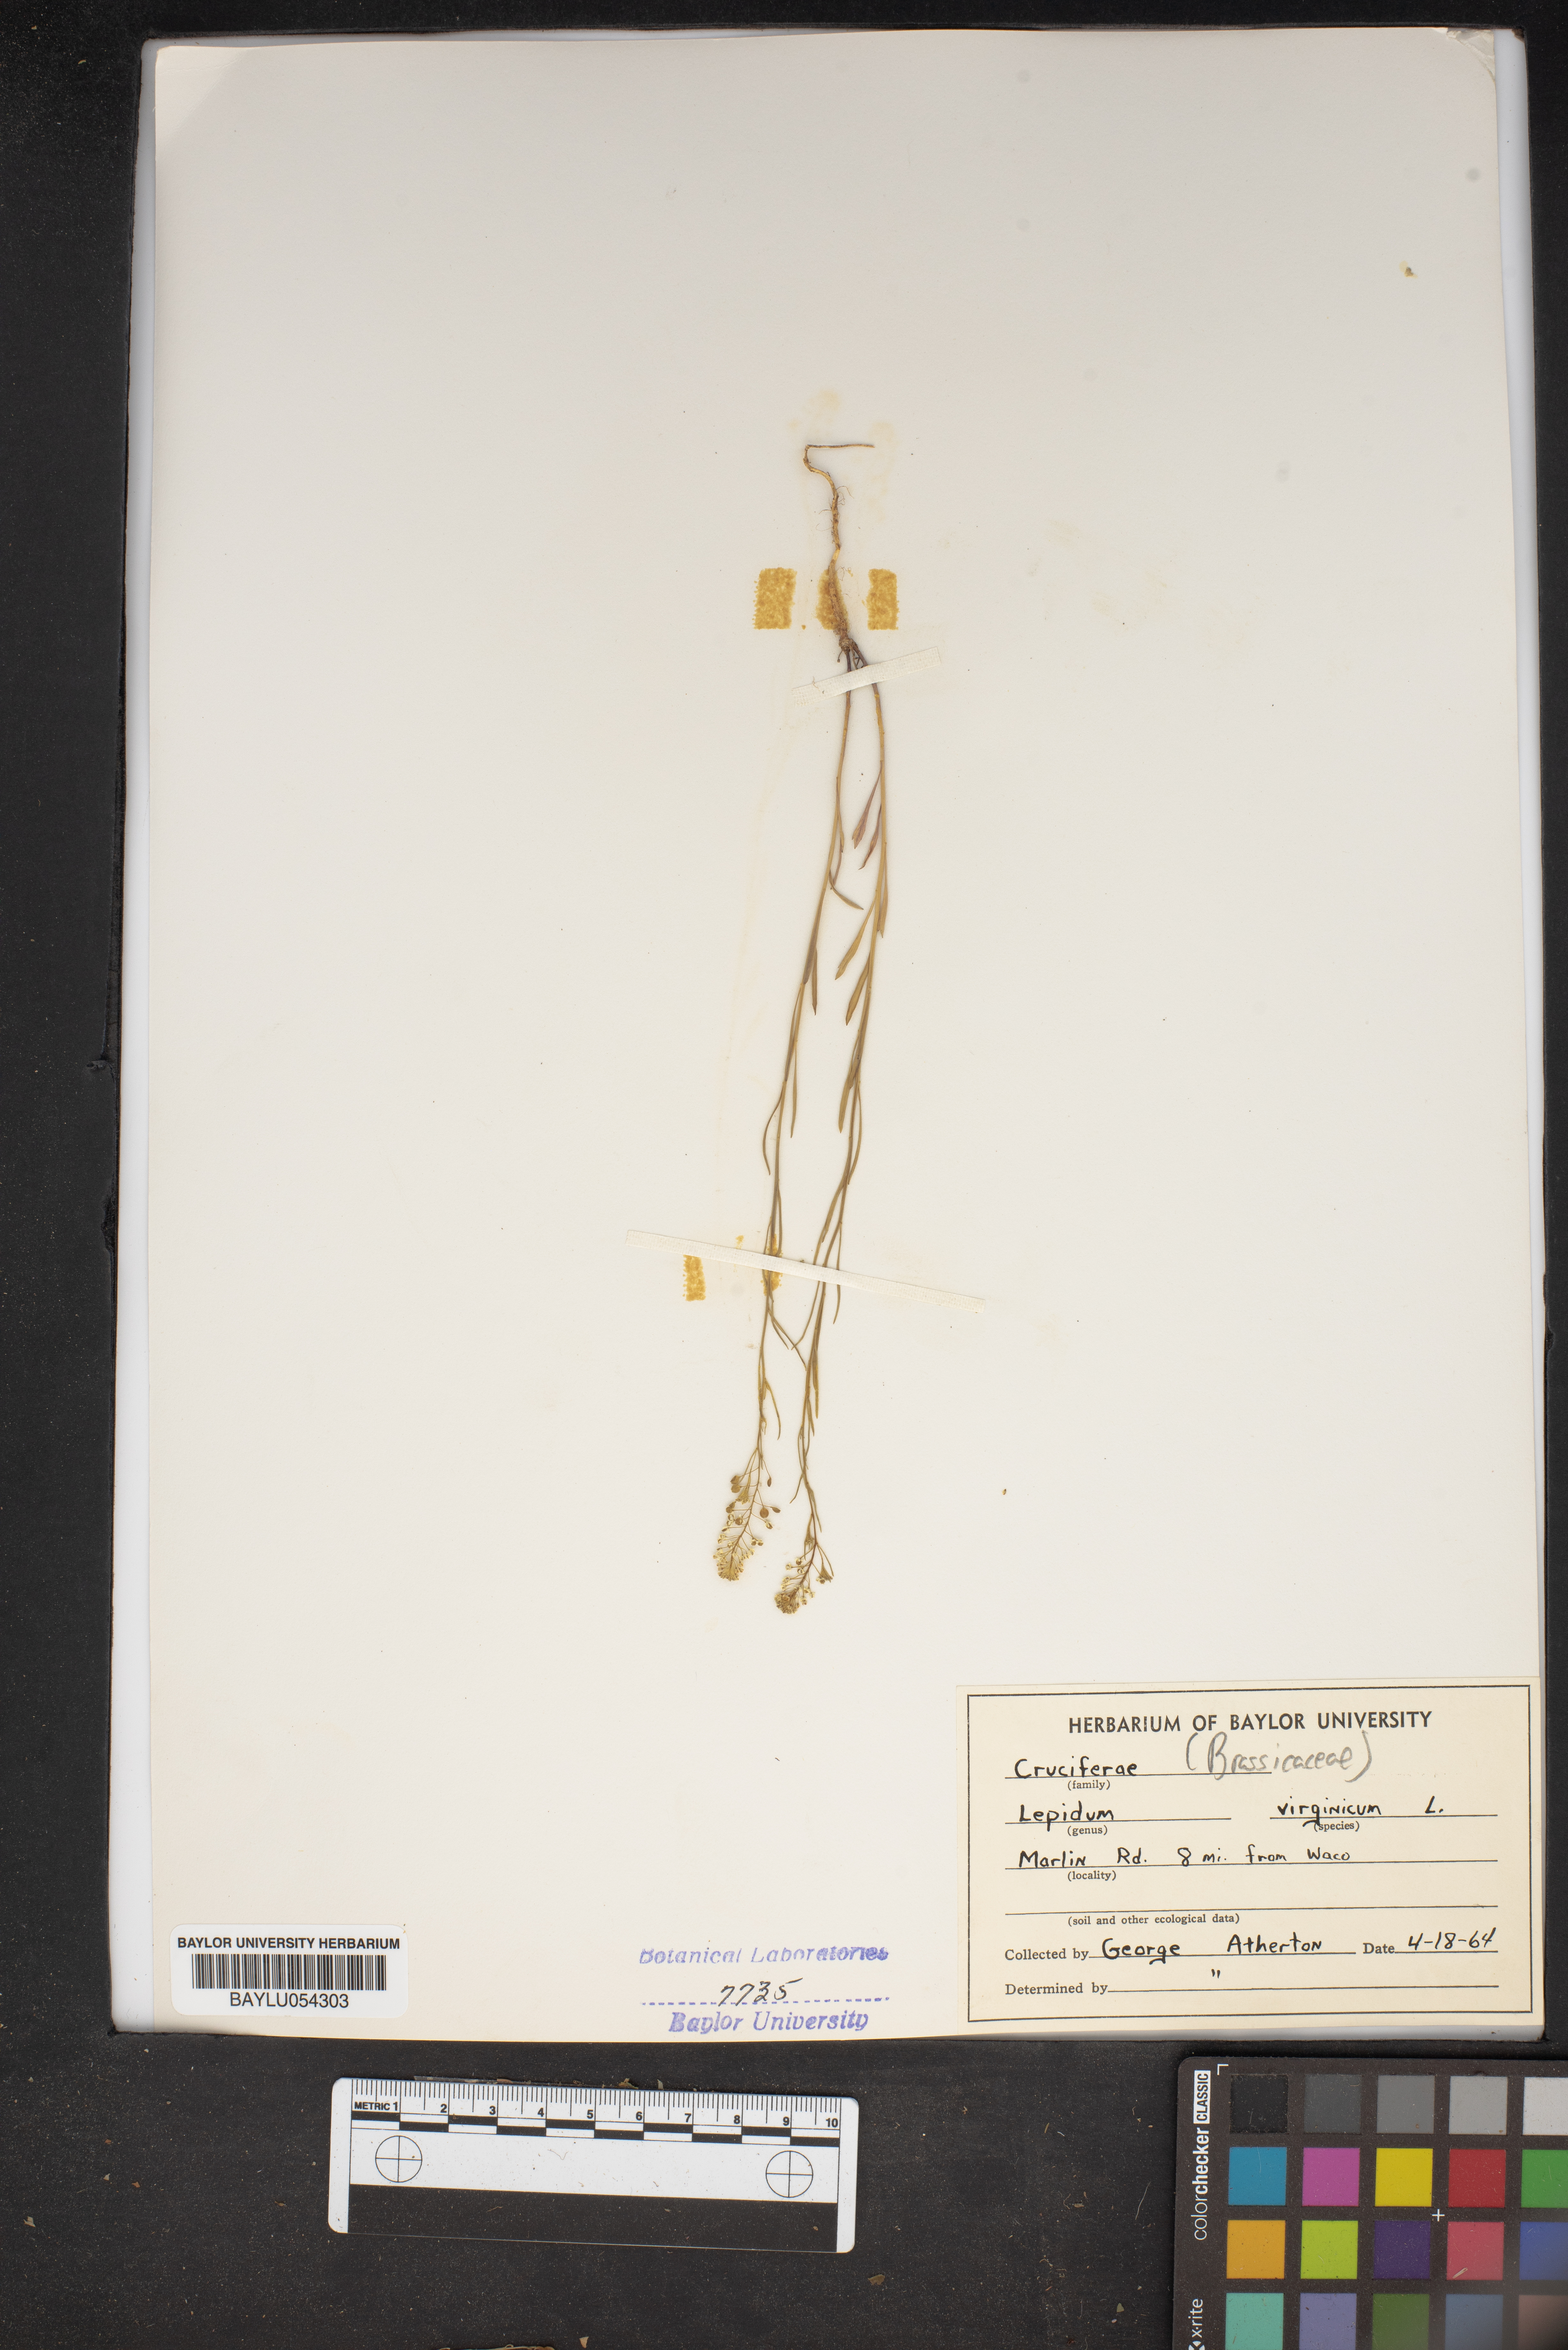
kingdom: Plantae
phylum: Tracheophyta
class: Magnoliopsida
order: Brassicales
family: Brassicaceae
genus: Lepidium
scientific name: Lepidium virginicum
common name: Least pepperwort
